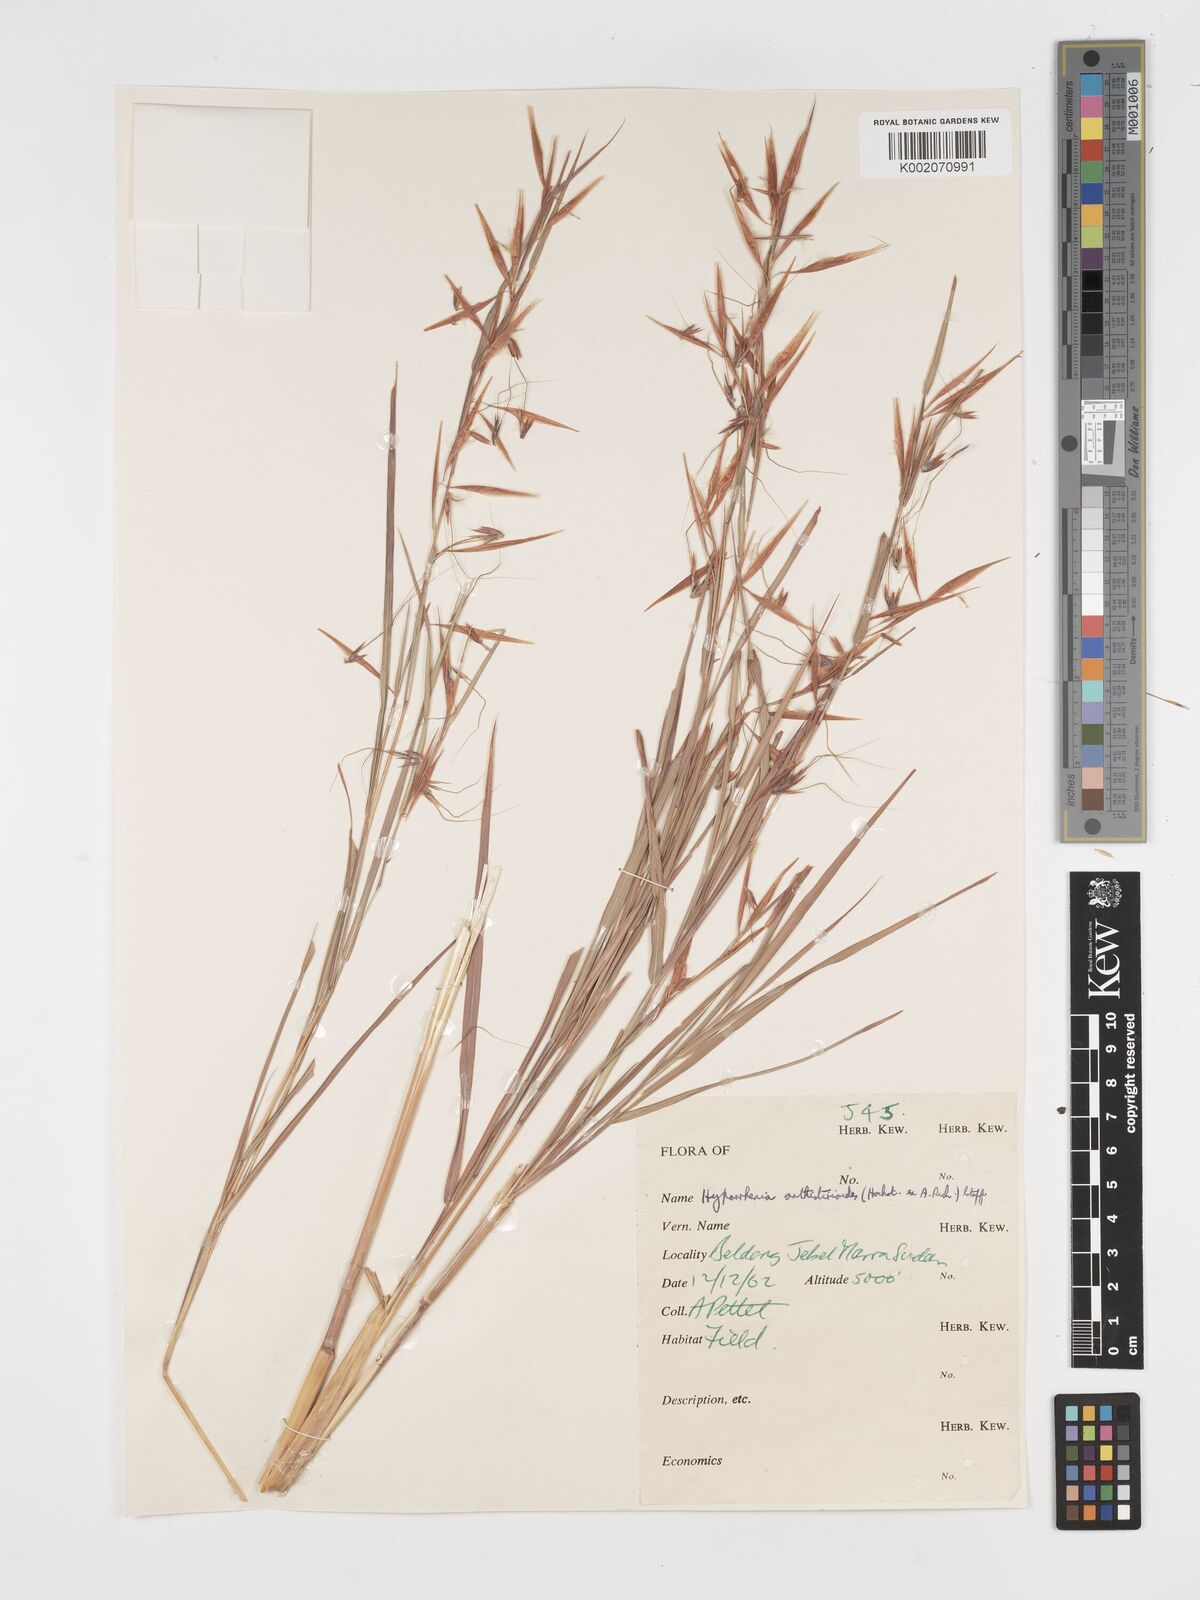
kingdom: Plantae
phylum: Tracheophyta
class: Liliopsida
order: Poales
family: Poaceae
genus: Hyparrhenia
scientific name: Hyparrhenia anthistirioides
